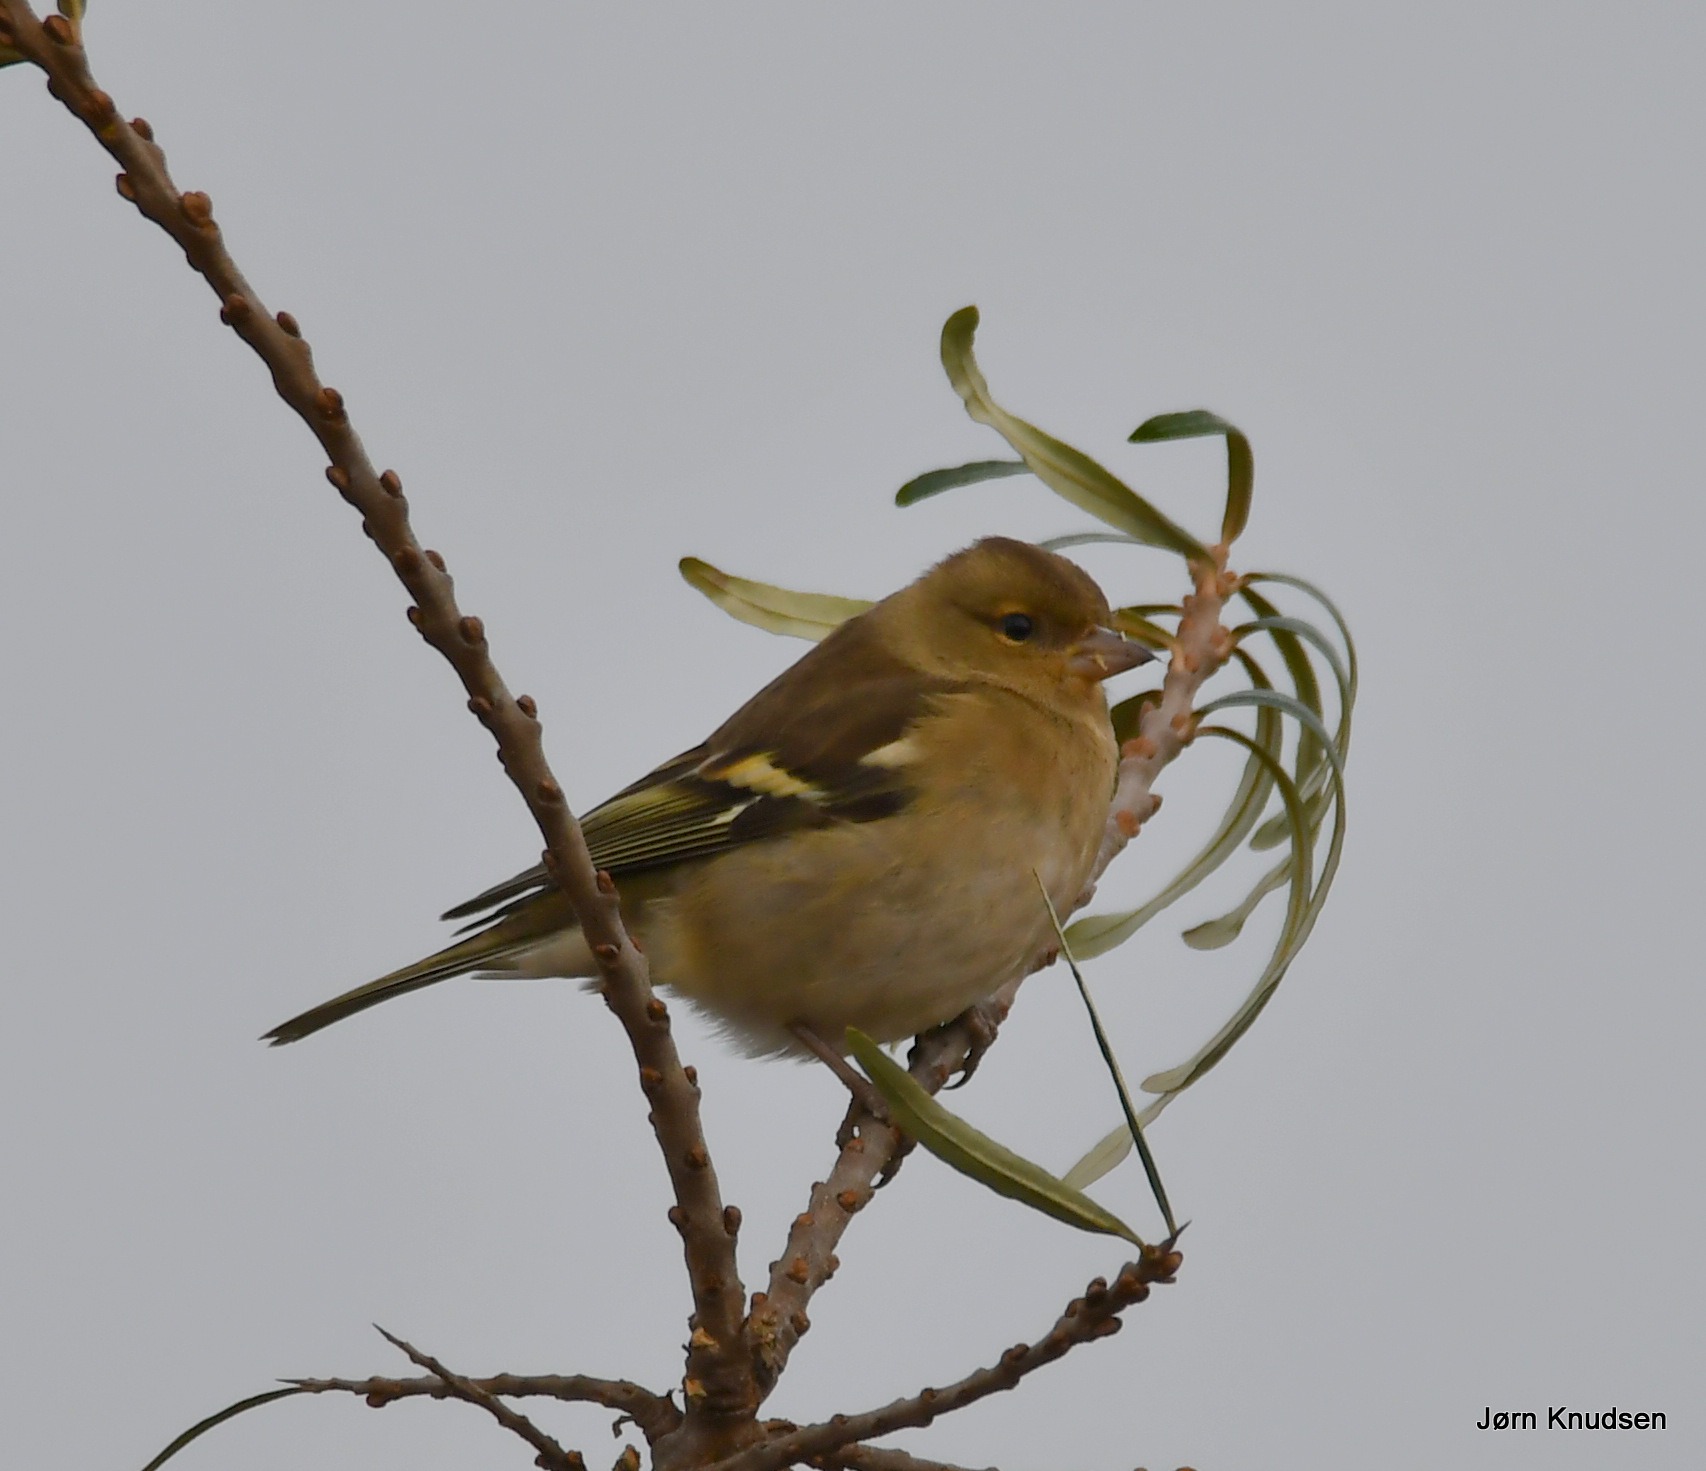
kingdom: Animalia
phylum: Chordata
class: Aves
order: Passeriformes
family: Fringillidae
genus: Fringilla
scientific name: Fringilla coelebs
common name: Bogfinke
